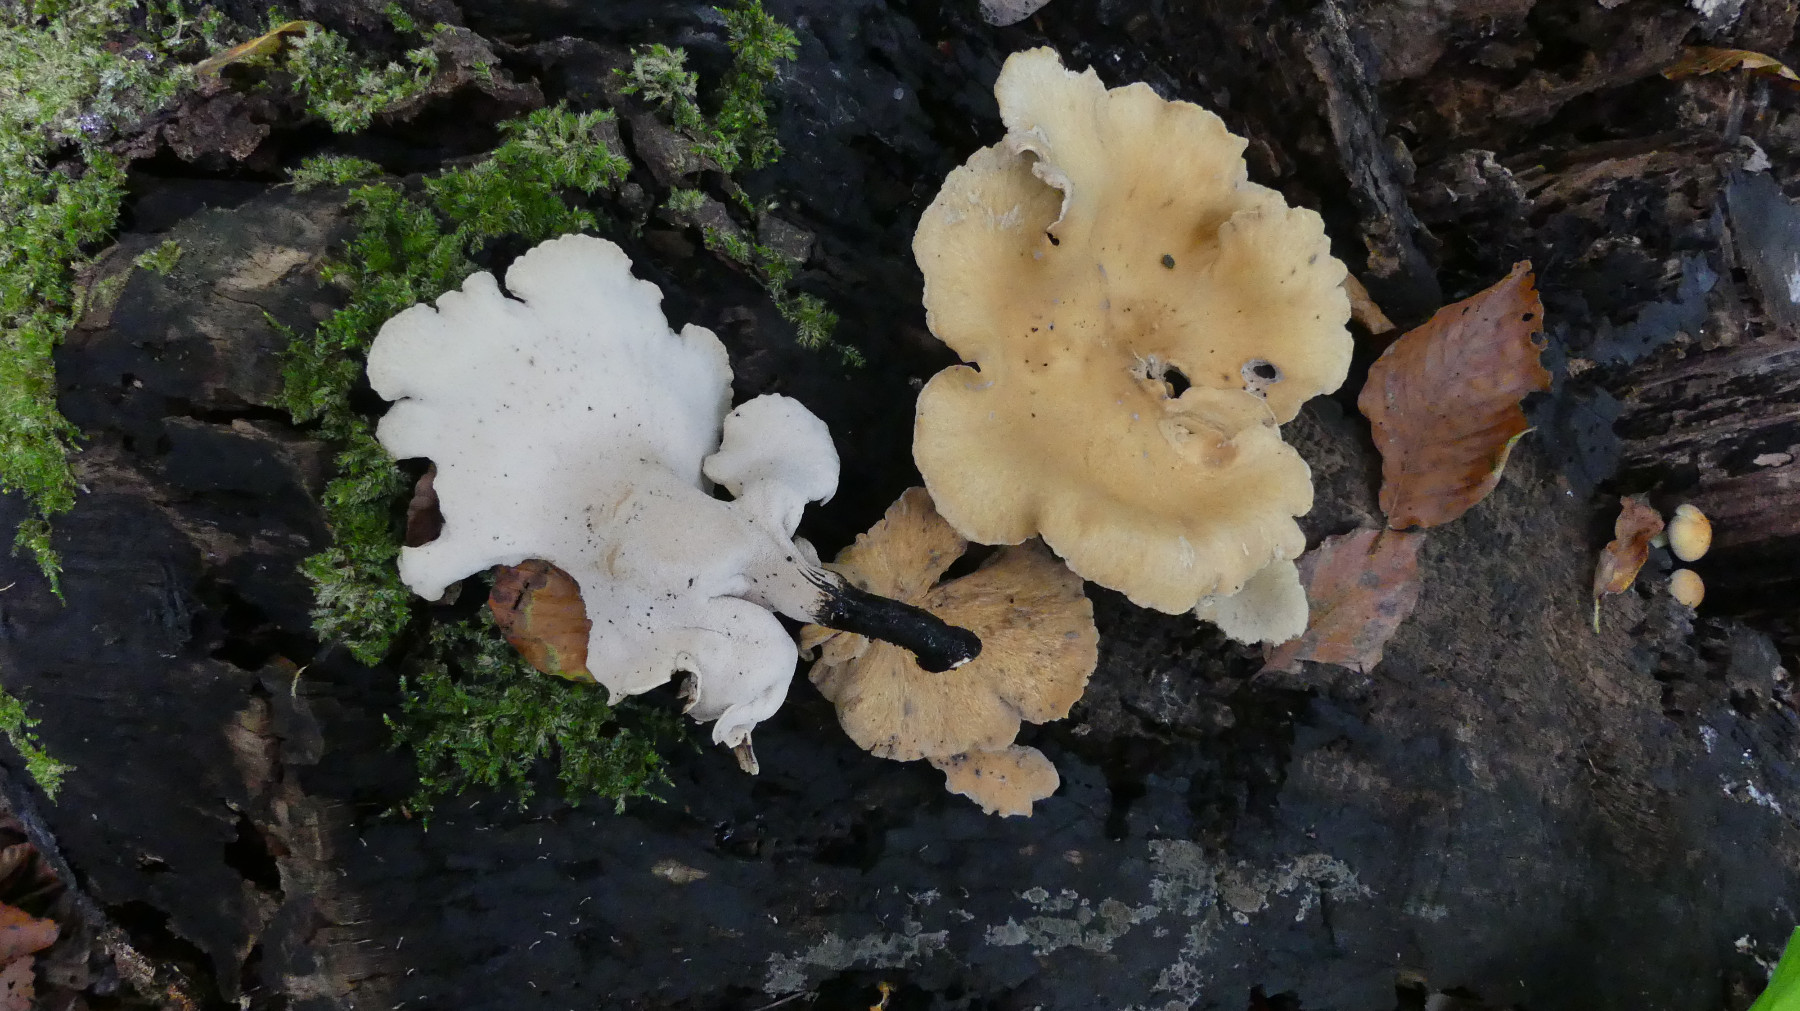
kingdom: Fungi
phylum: Basidiomycota
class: Agaricomycetes
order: Polyporales
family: Polyporaceae
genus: Cerioporus
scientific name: Cerioporus varius
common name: foranderlig stilkporesvamp
